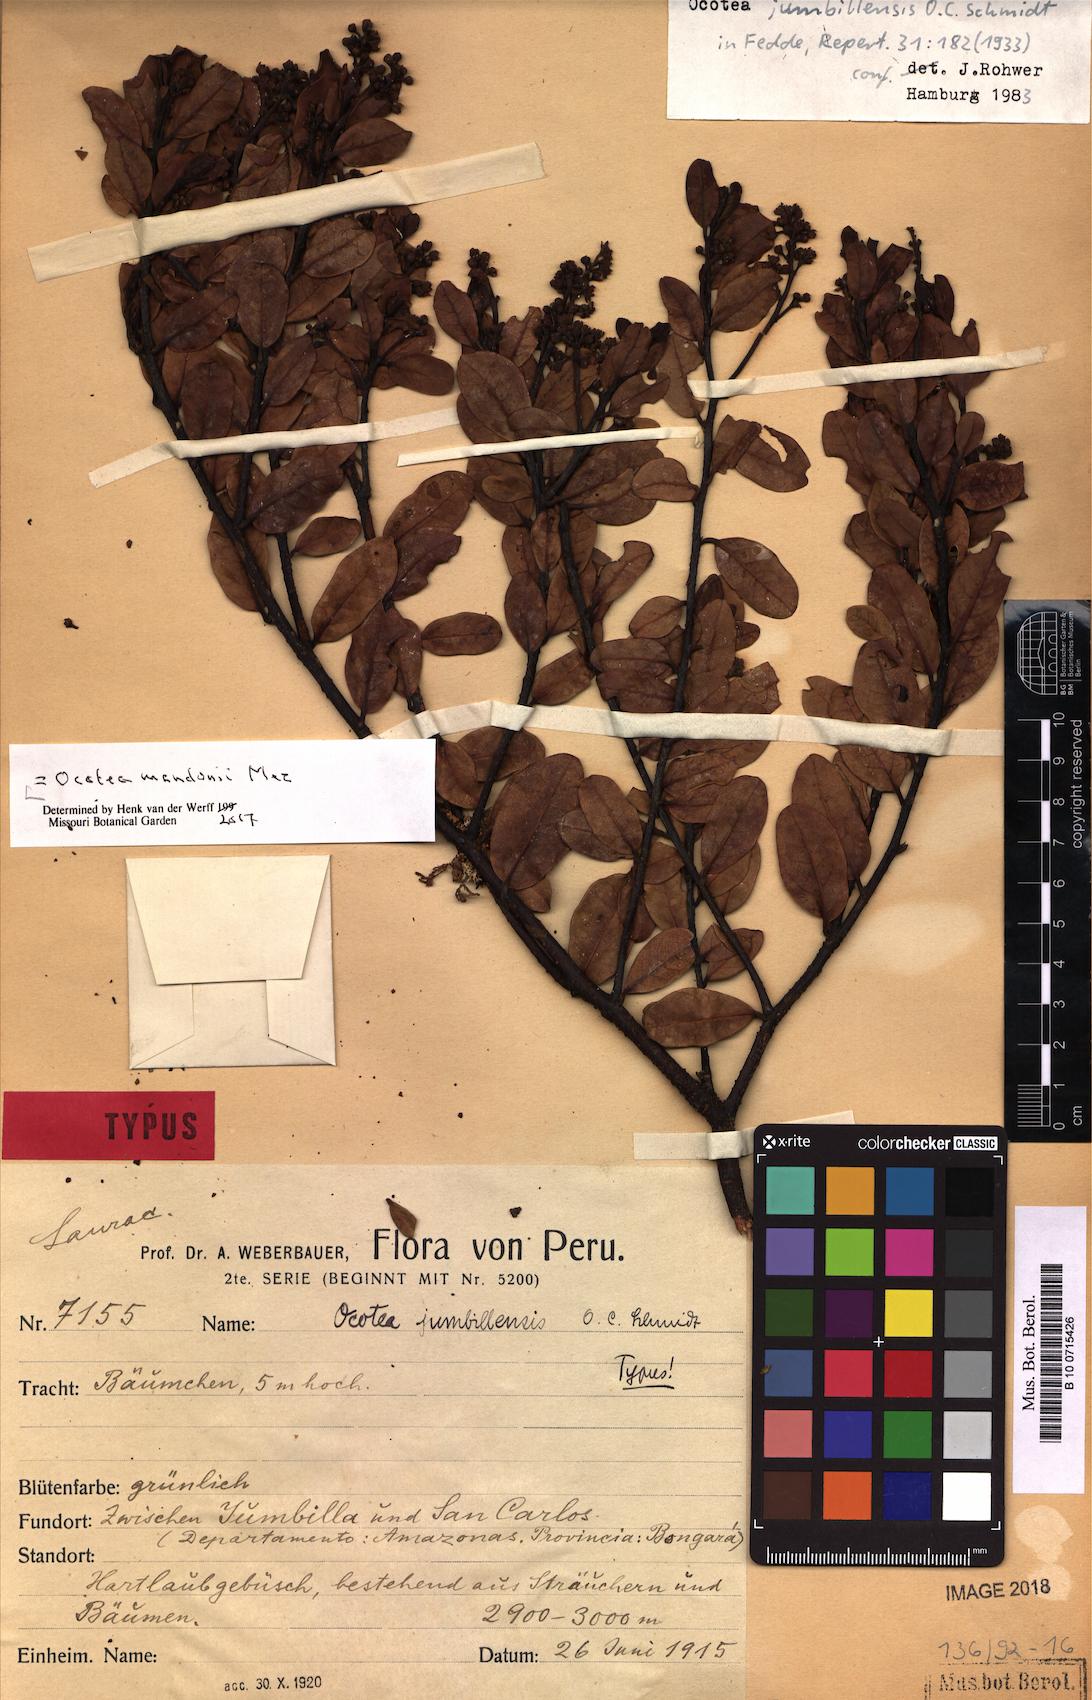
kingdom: Plantae
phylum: Tracheophyta
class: Magnoliopsida
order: Laurales
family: Lauraceae
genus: Ocotea
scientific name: Ocotea mandonii
